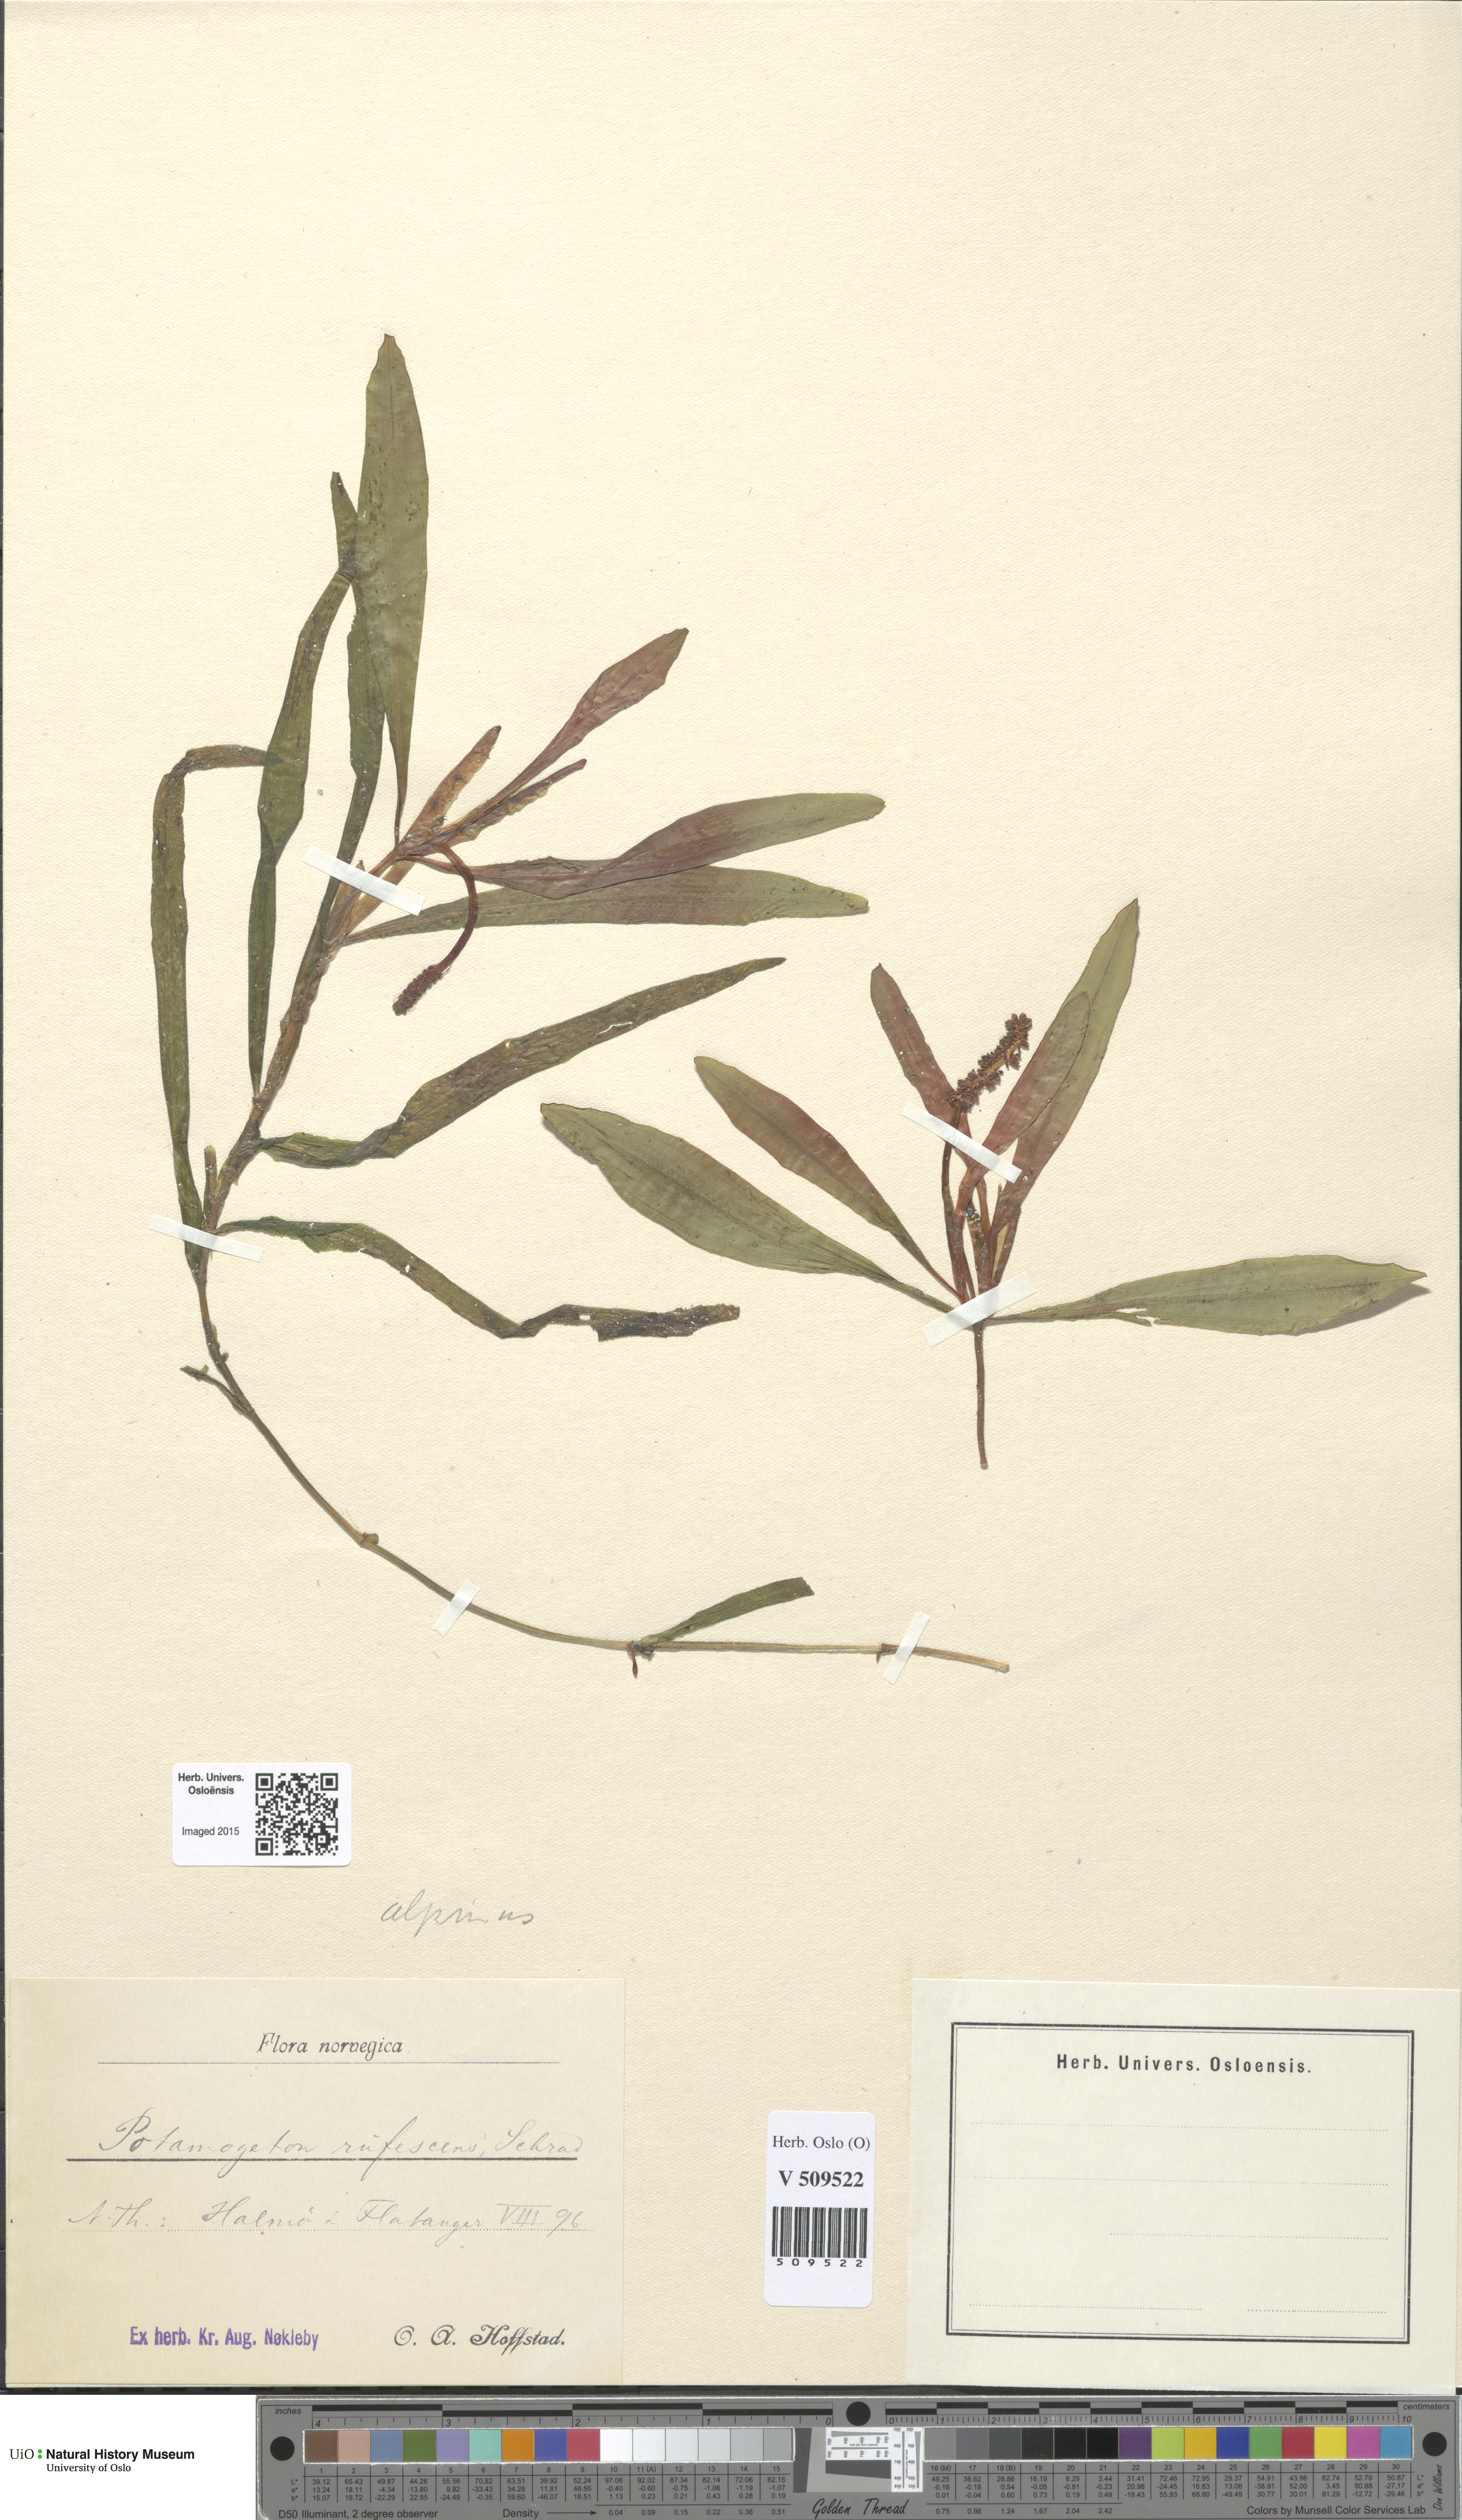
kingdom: Plantae
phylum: Tracheophyta
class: Liliopsida
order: Alismatales
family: Potamogetonaceae
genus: Potamogeton
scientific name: Potamogeton alpinus
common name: Red pondweed
